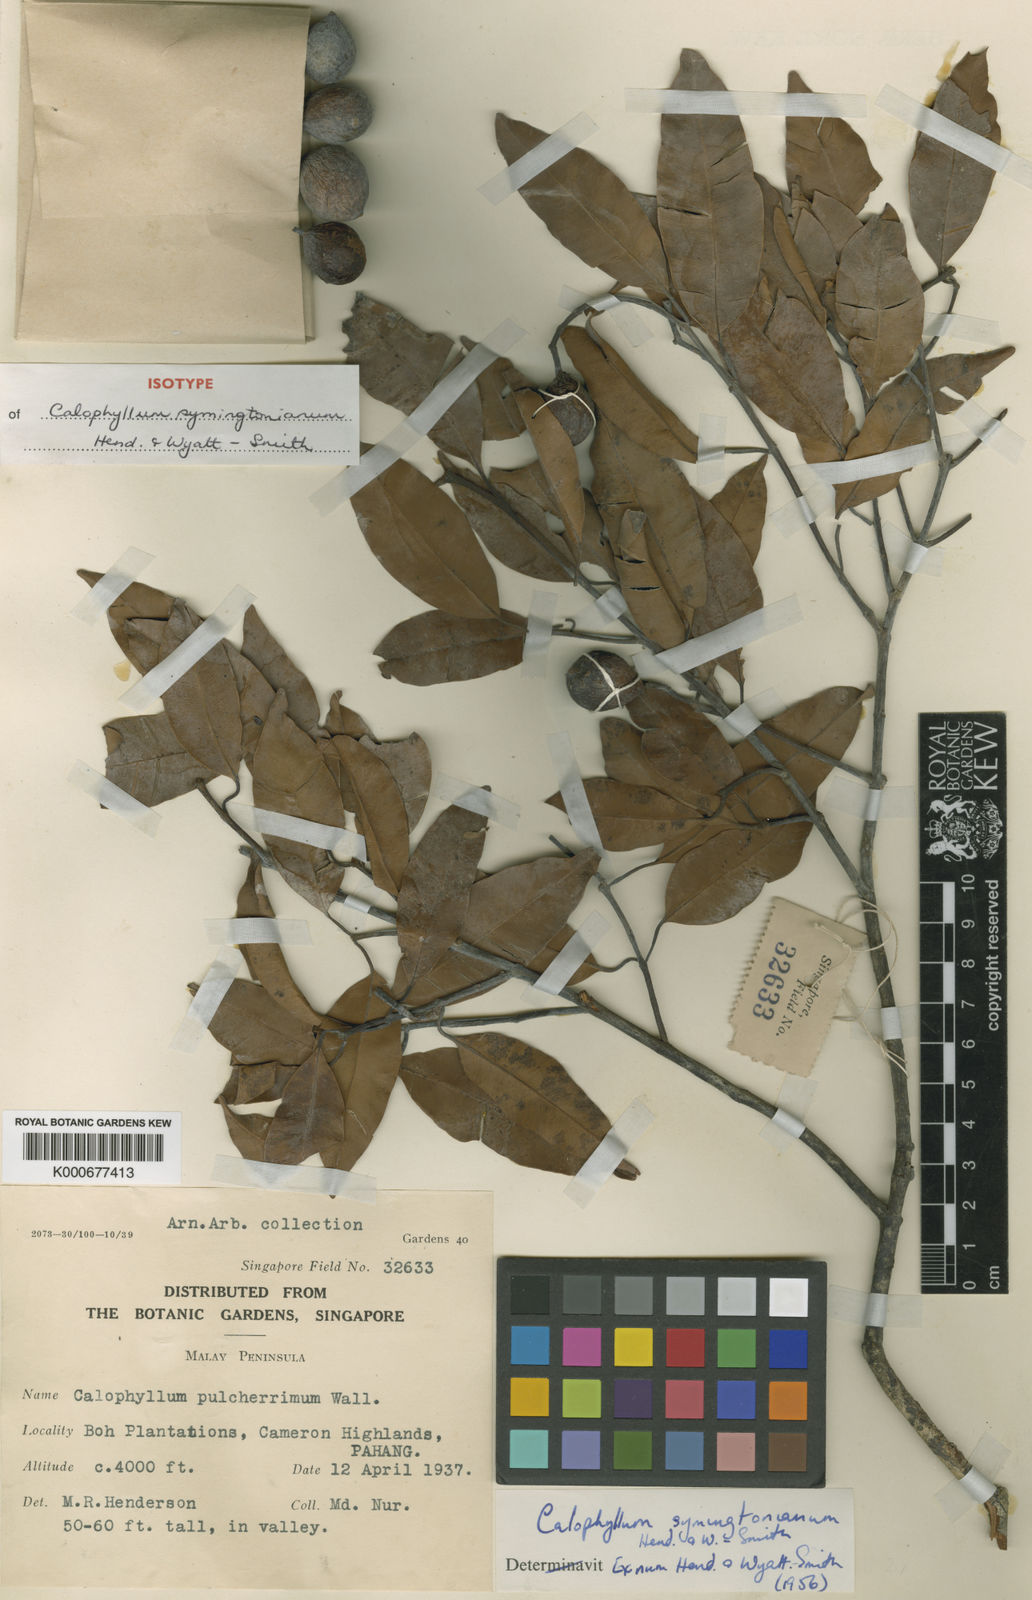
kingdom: Plantae
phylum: Tracheophyta
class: Magnoliopsida
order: Malpighiales
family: Calophyllaceae
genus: Calophyllum
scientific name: Calophyllum symingtonianum
